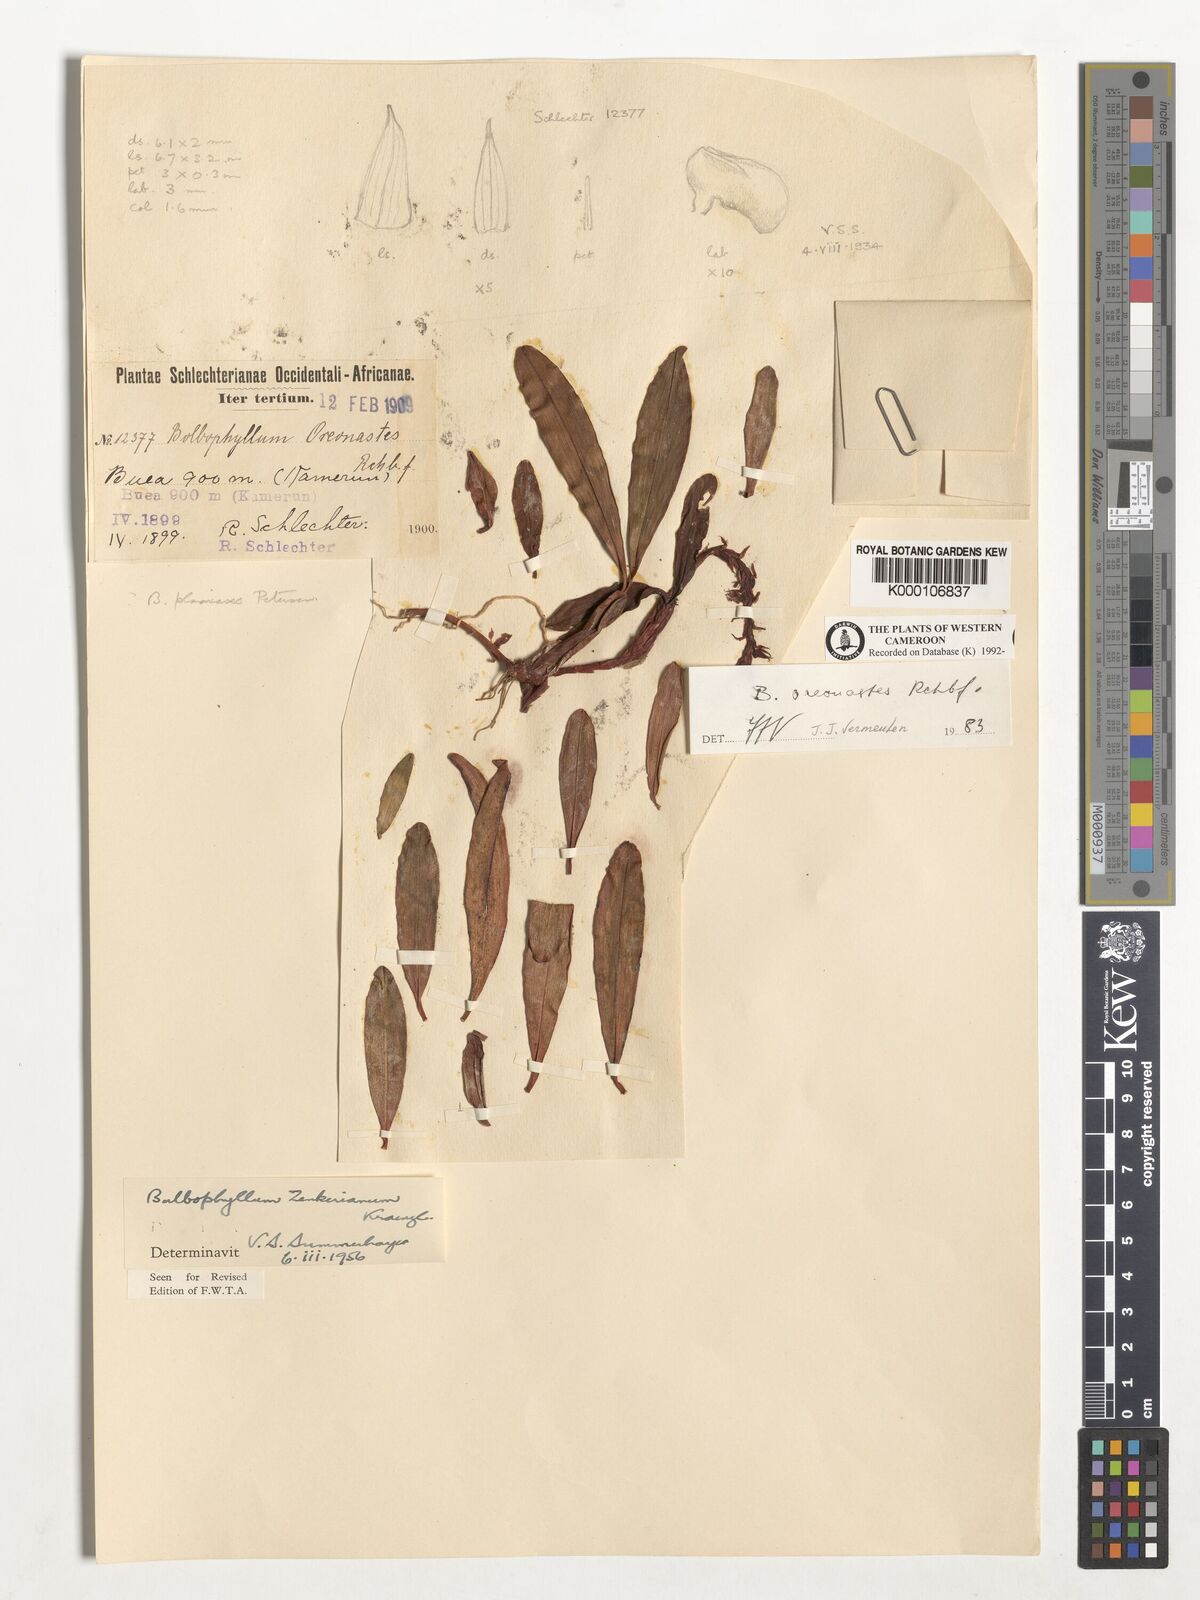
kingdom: Plantae
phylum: Tracheophyta
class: Liliopsida
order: Asparagales
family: Orchidaceae
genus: Bulbophyllum
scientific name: Bulbophyllum oreonastes
